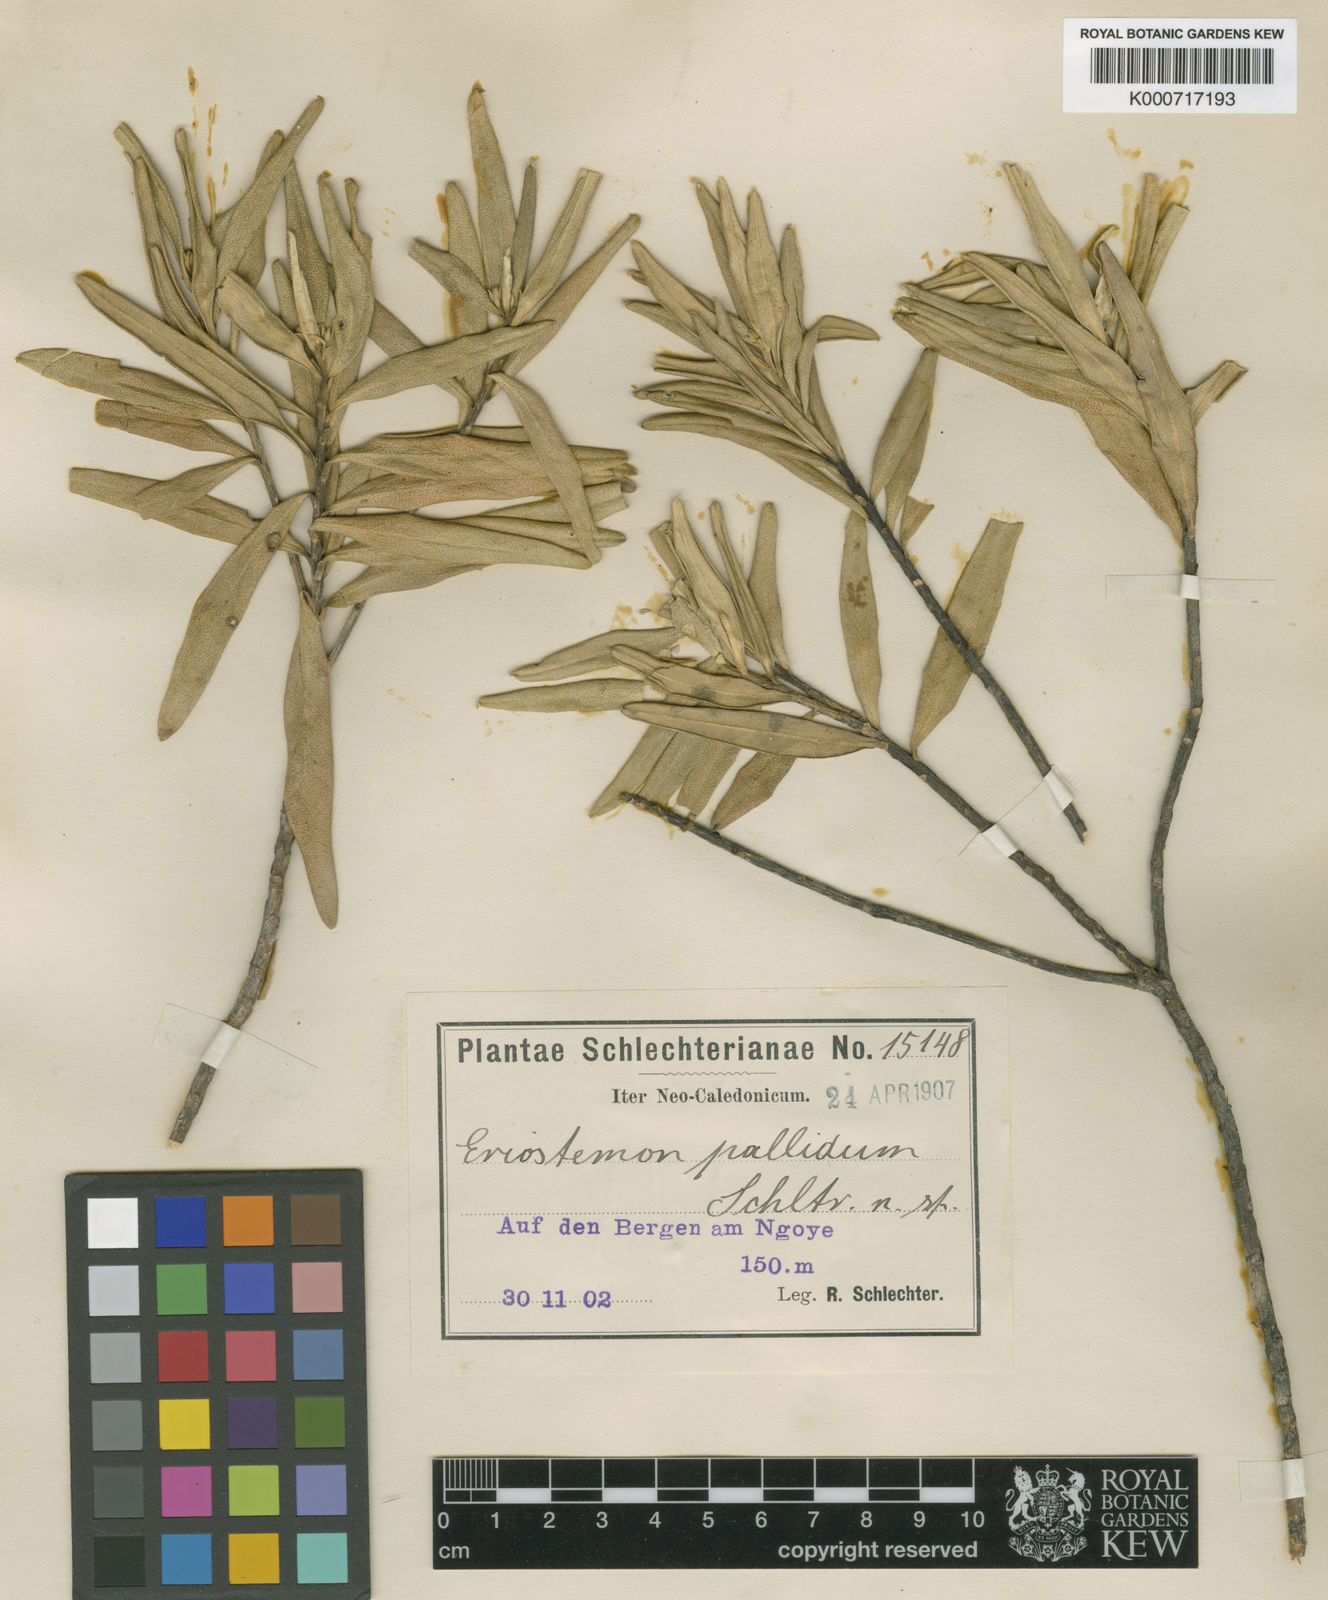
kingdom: Plantae
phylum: Tracheophyta
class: Magnoliopsida
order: Sapindales
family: Rutaceae
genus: Neoschmidea
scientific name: Neoschmidea pallida
